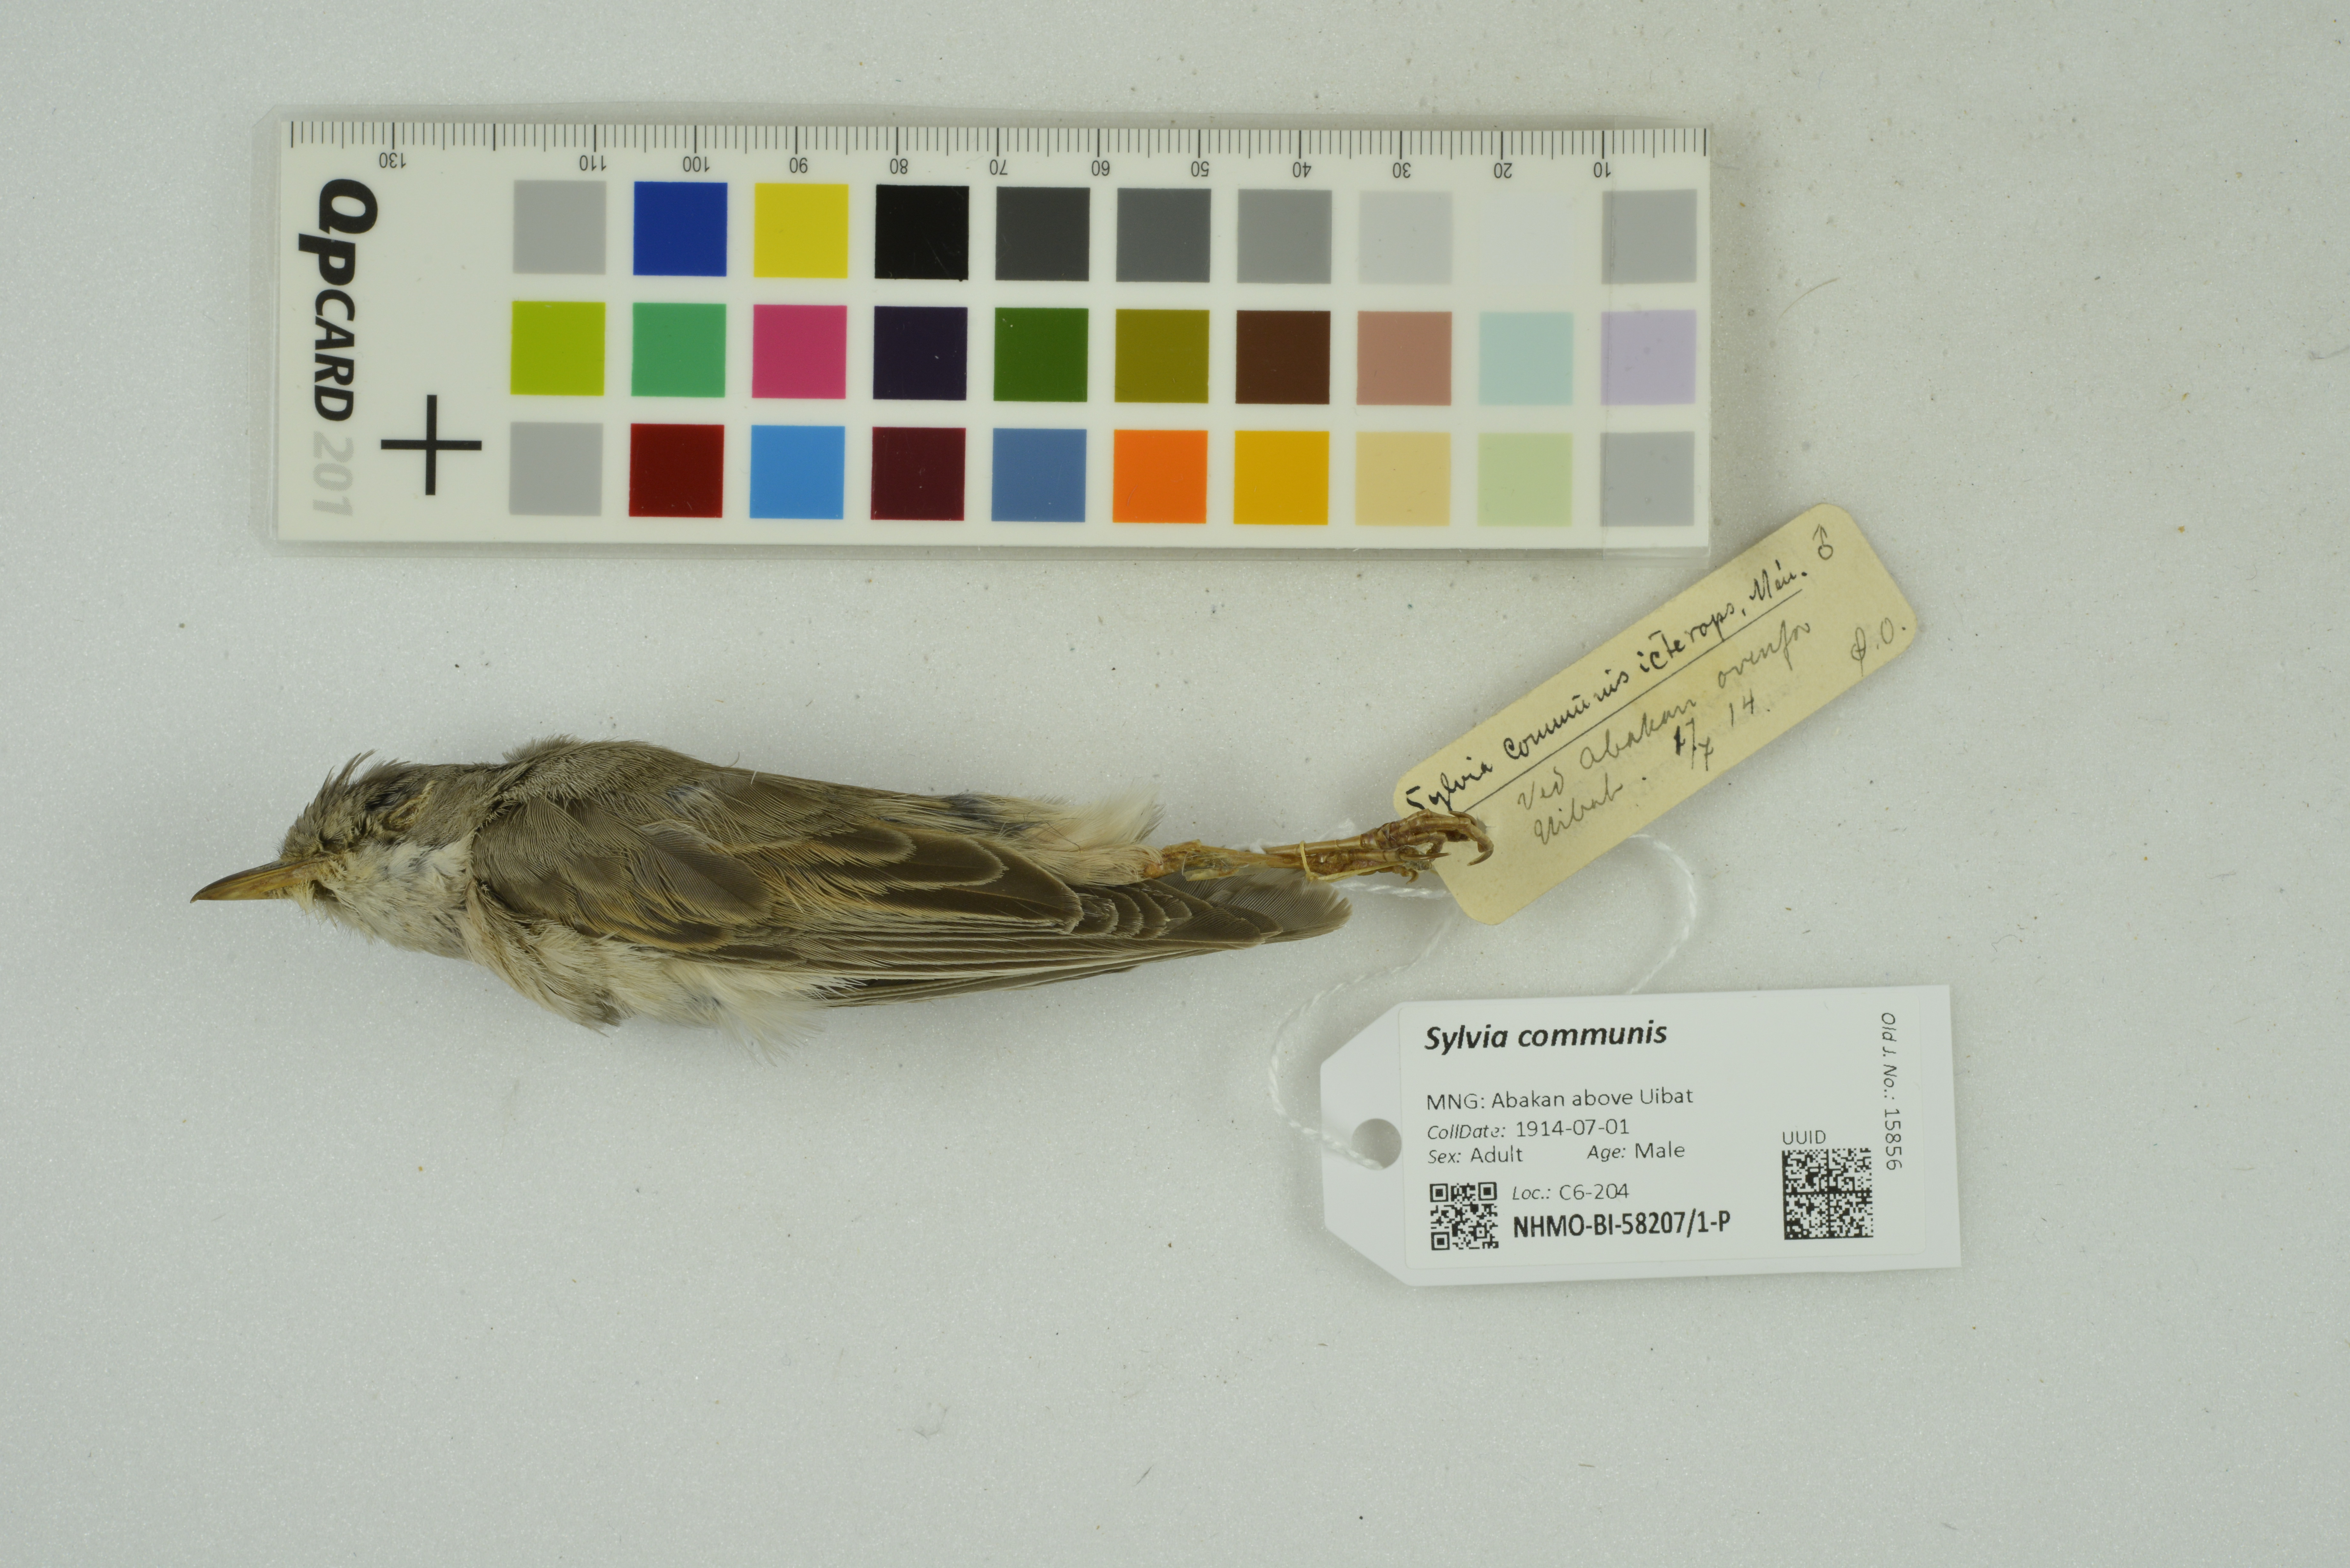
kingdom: Animalia
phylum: Chordata
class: Aves
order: Passeriformes
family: Sylviidae
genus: Sylvia
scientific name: Sylvia communis
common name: Common whitethroat
